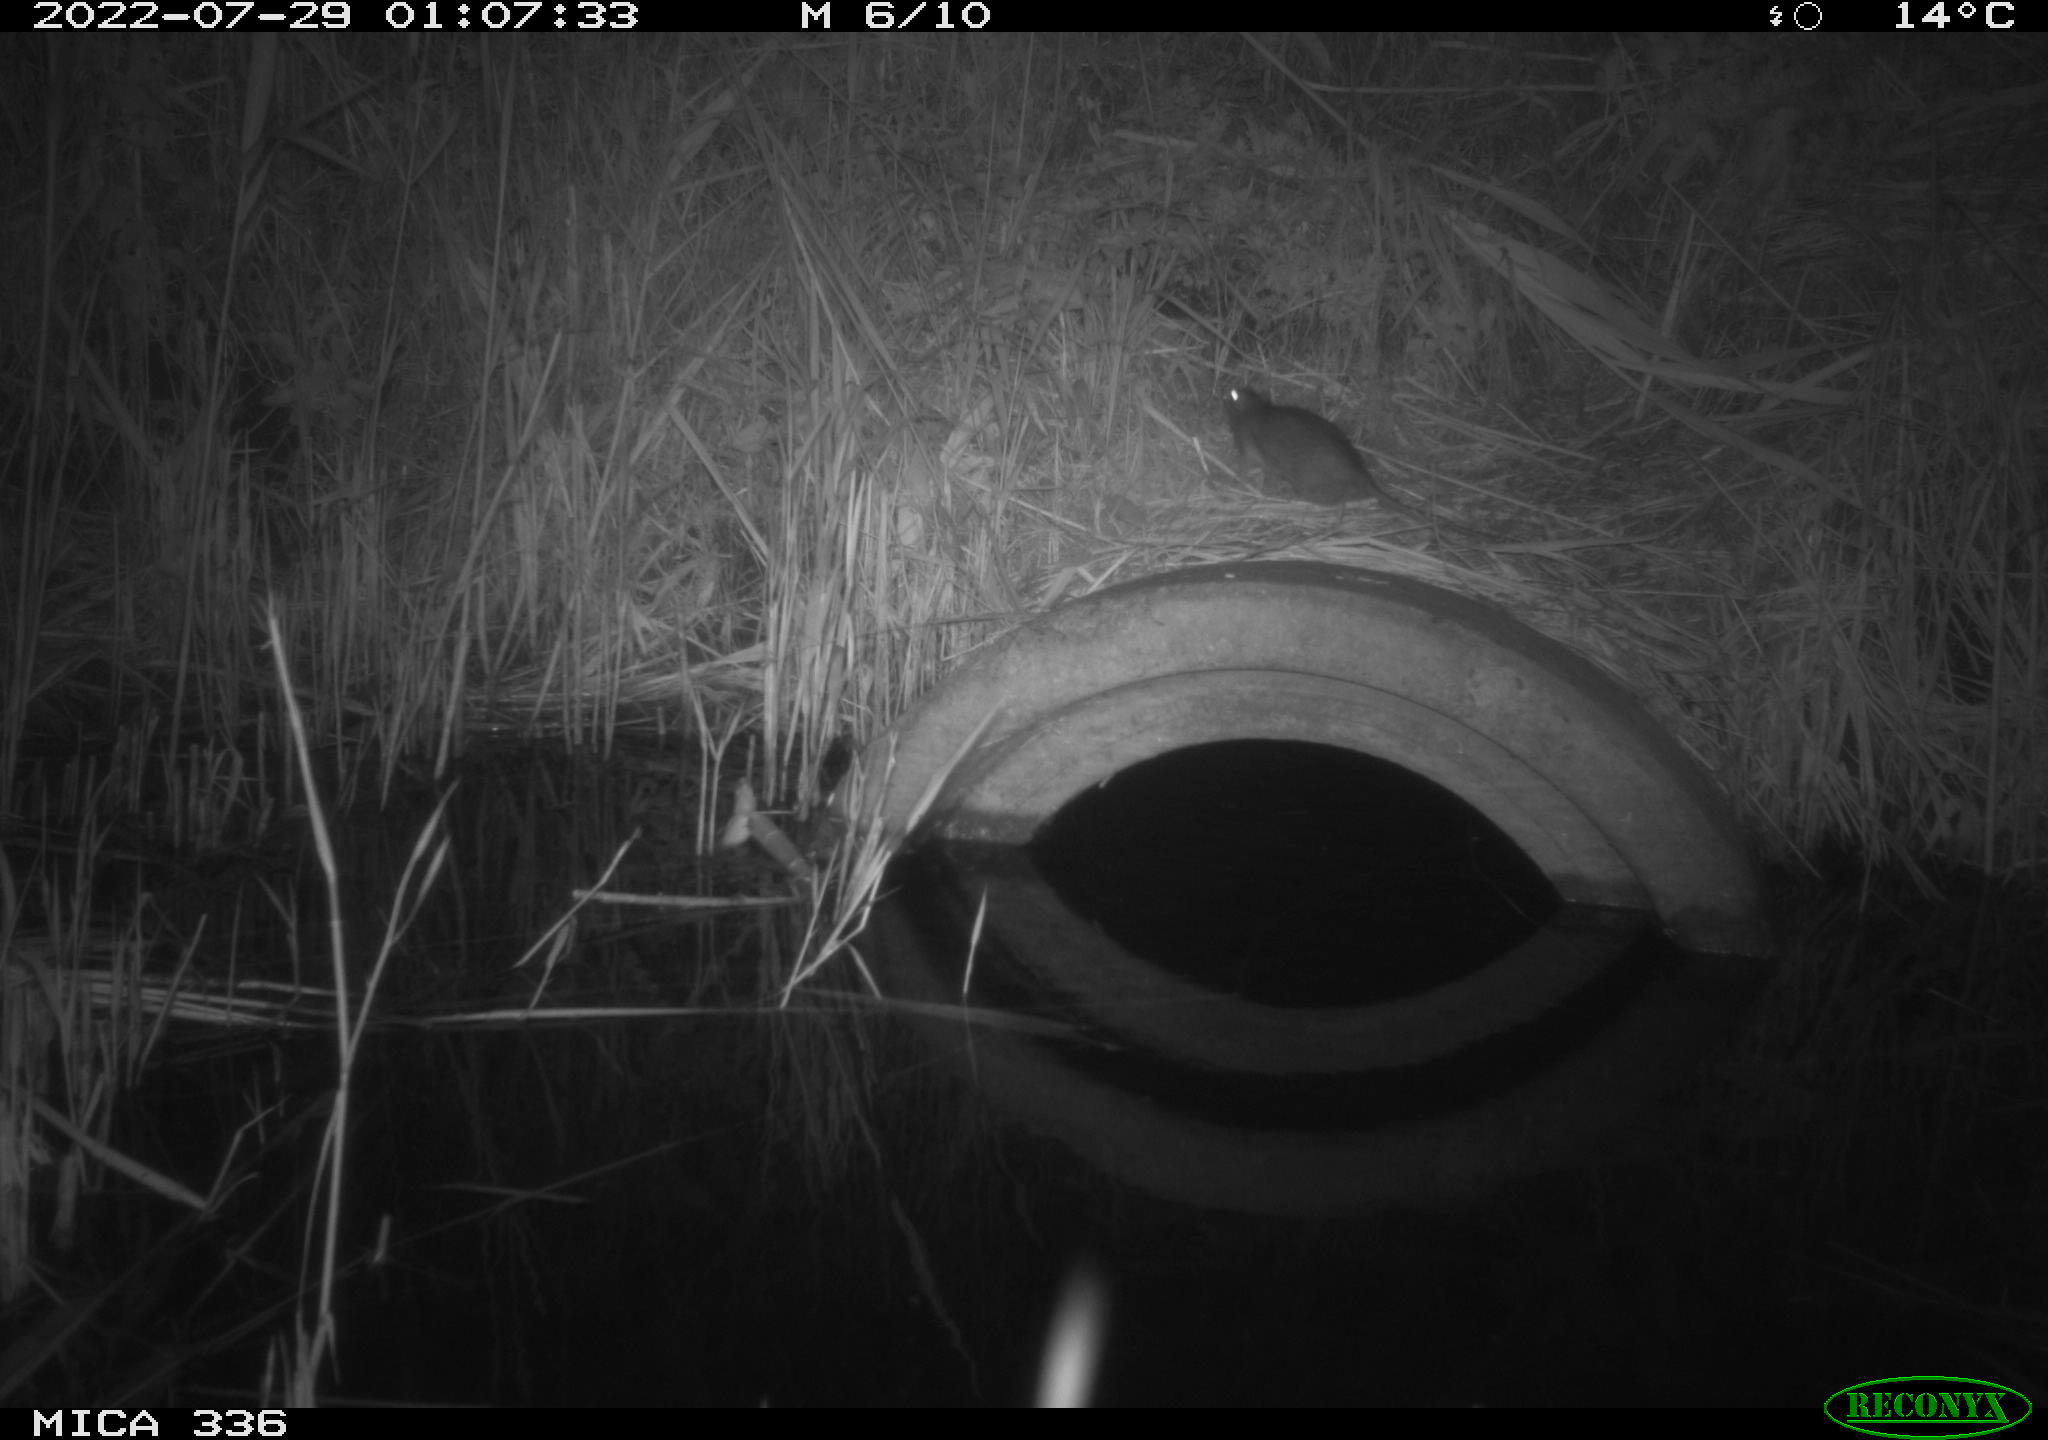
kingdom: Animalia
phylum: Chordata
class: Mammalia
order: Rodentia
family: Muridae
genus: Rattus
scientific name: Rattus norvegicus
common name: Brown rat
